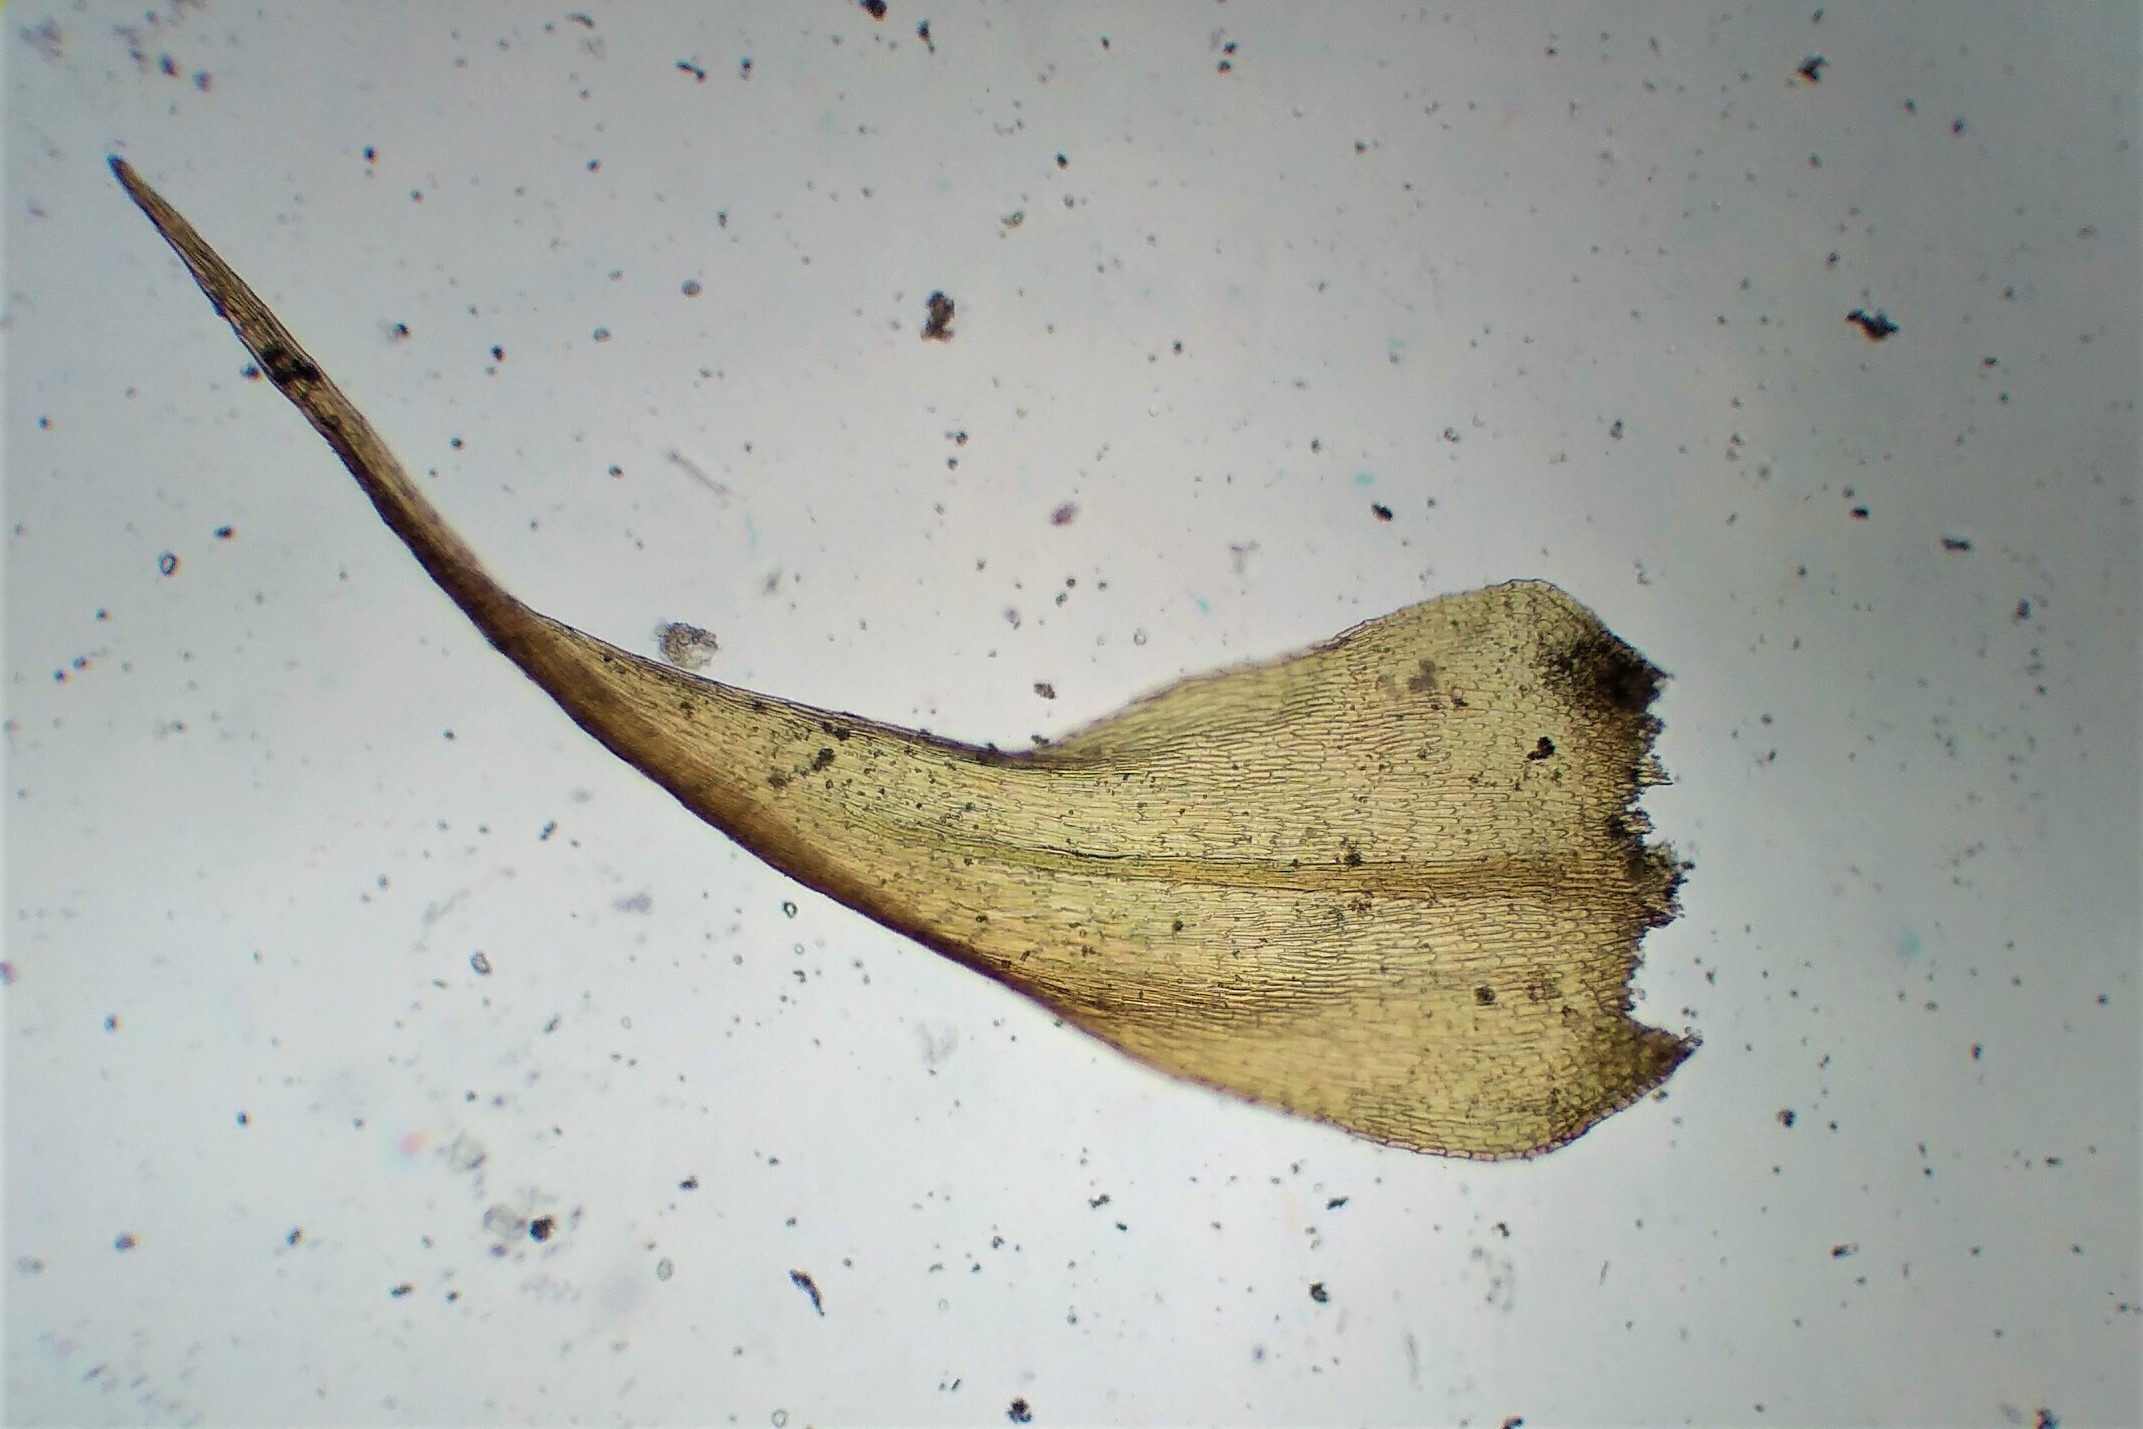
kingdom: Plantae
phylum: Bryophyta
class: Bryopsida
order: Hypnales
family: Amblystegiaceae
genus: Campylium
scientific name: Campylium chrysophyllum
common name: Tør guldstjernemos
